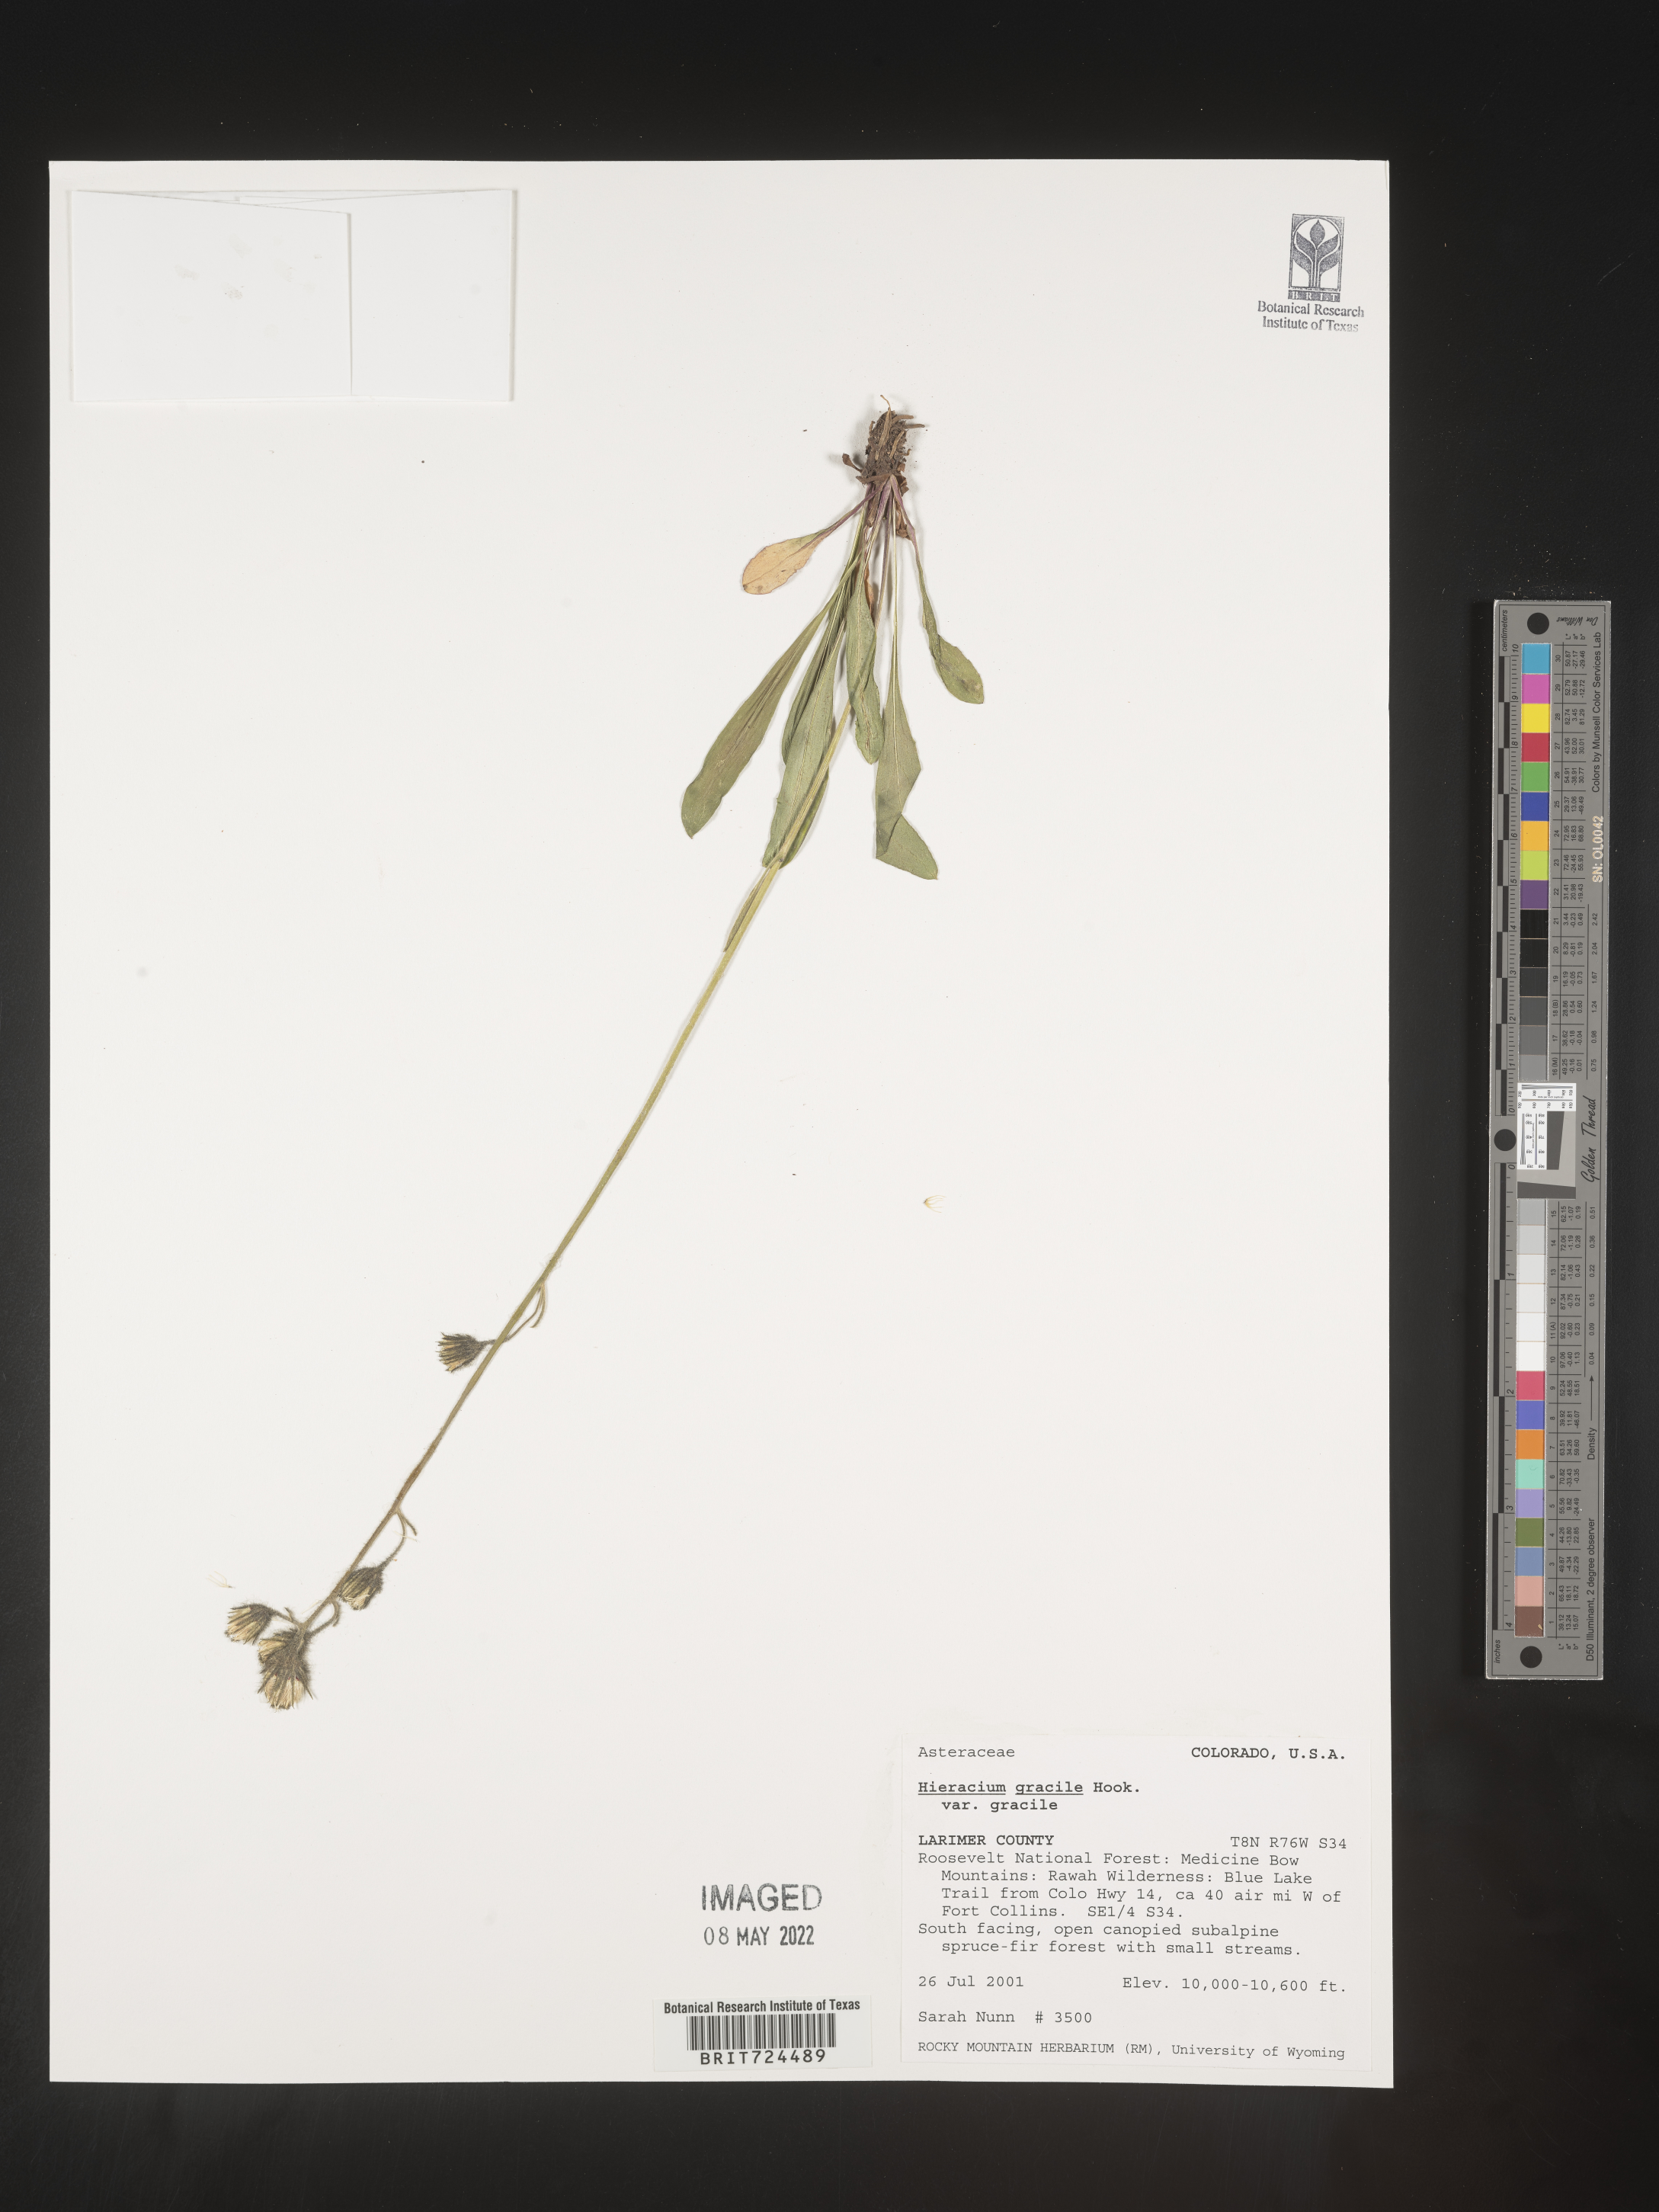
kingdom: Plantae
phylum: Tracheophyta
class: Magnoliopsida
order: Asterales
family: Asteraceae
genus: Hieracium
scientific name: Hieracium
